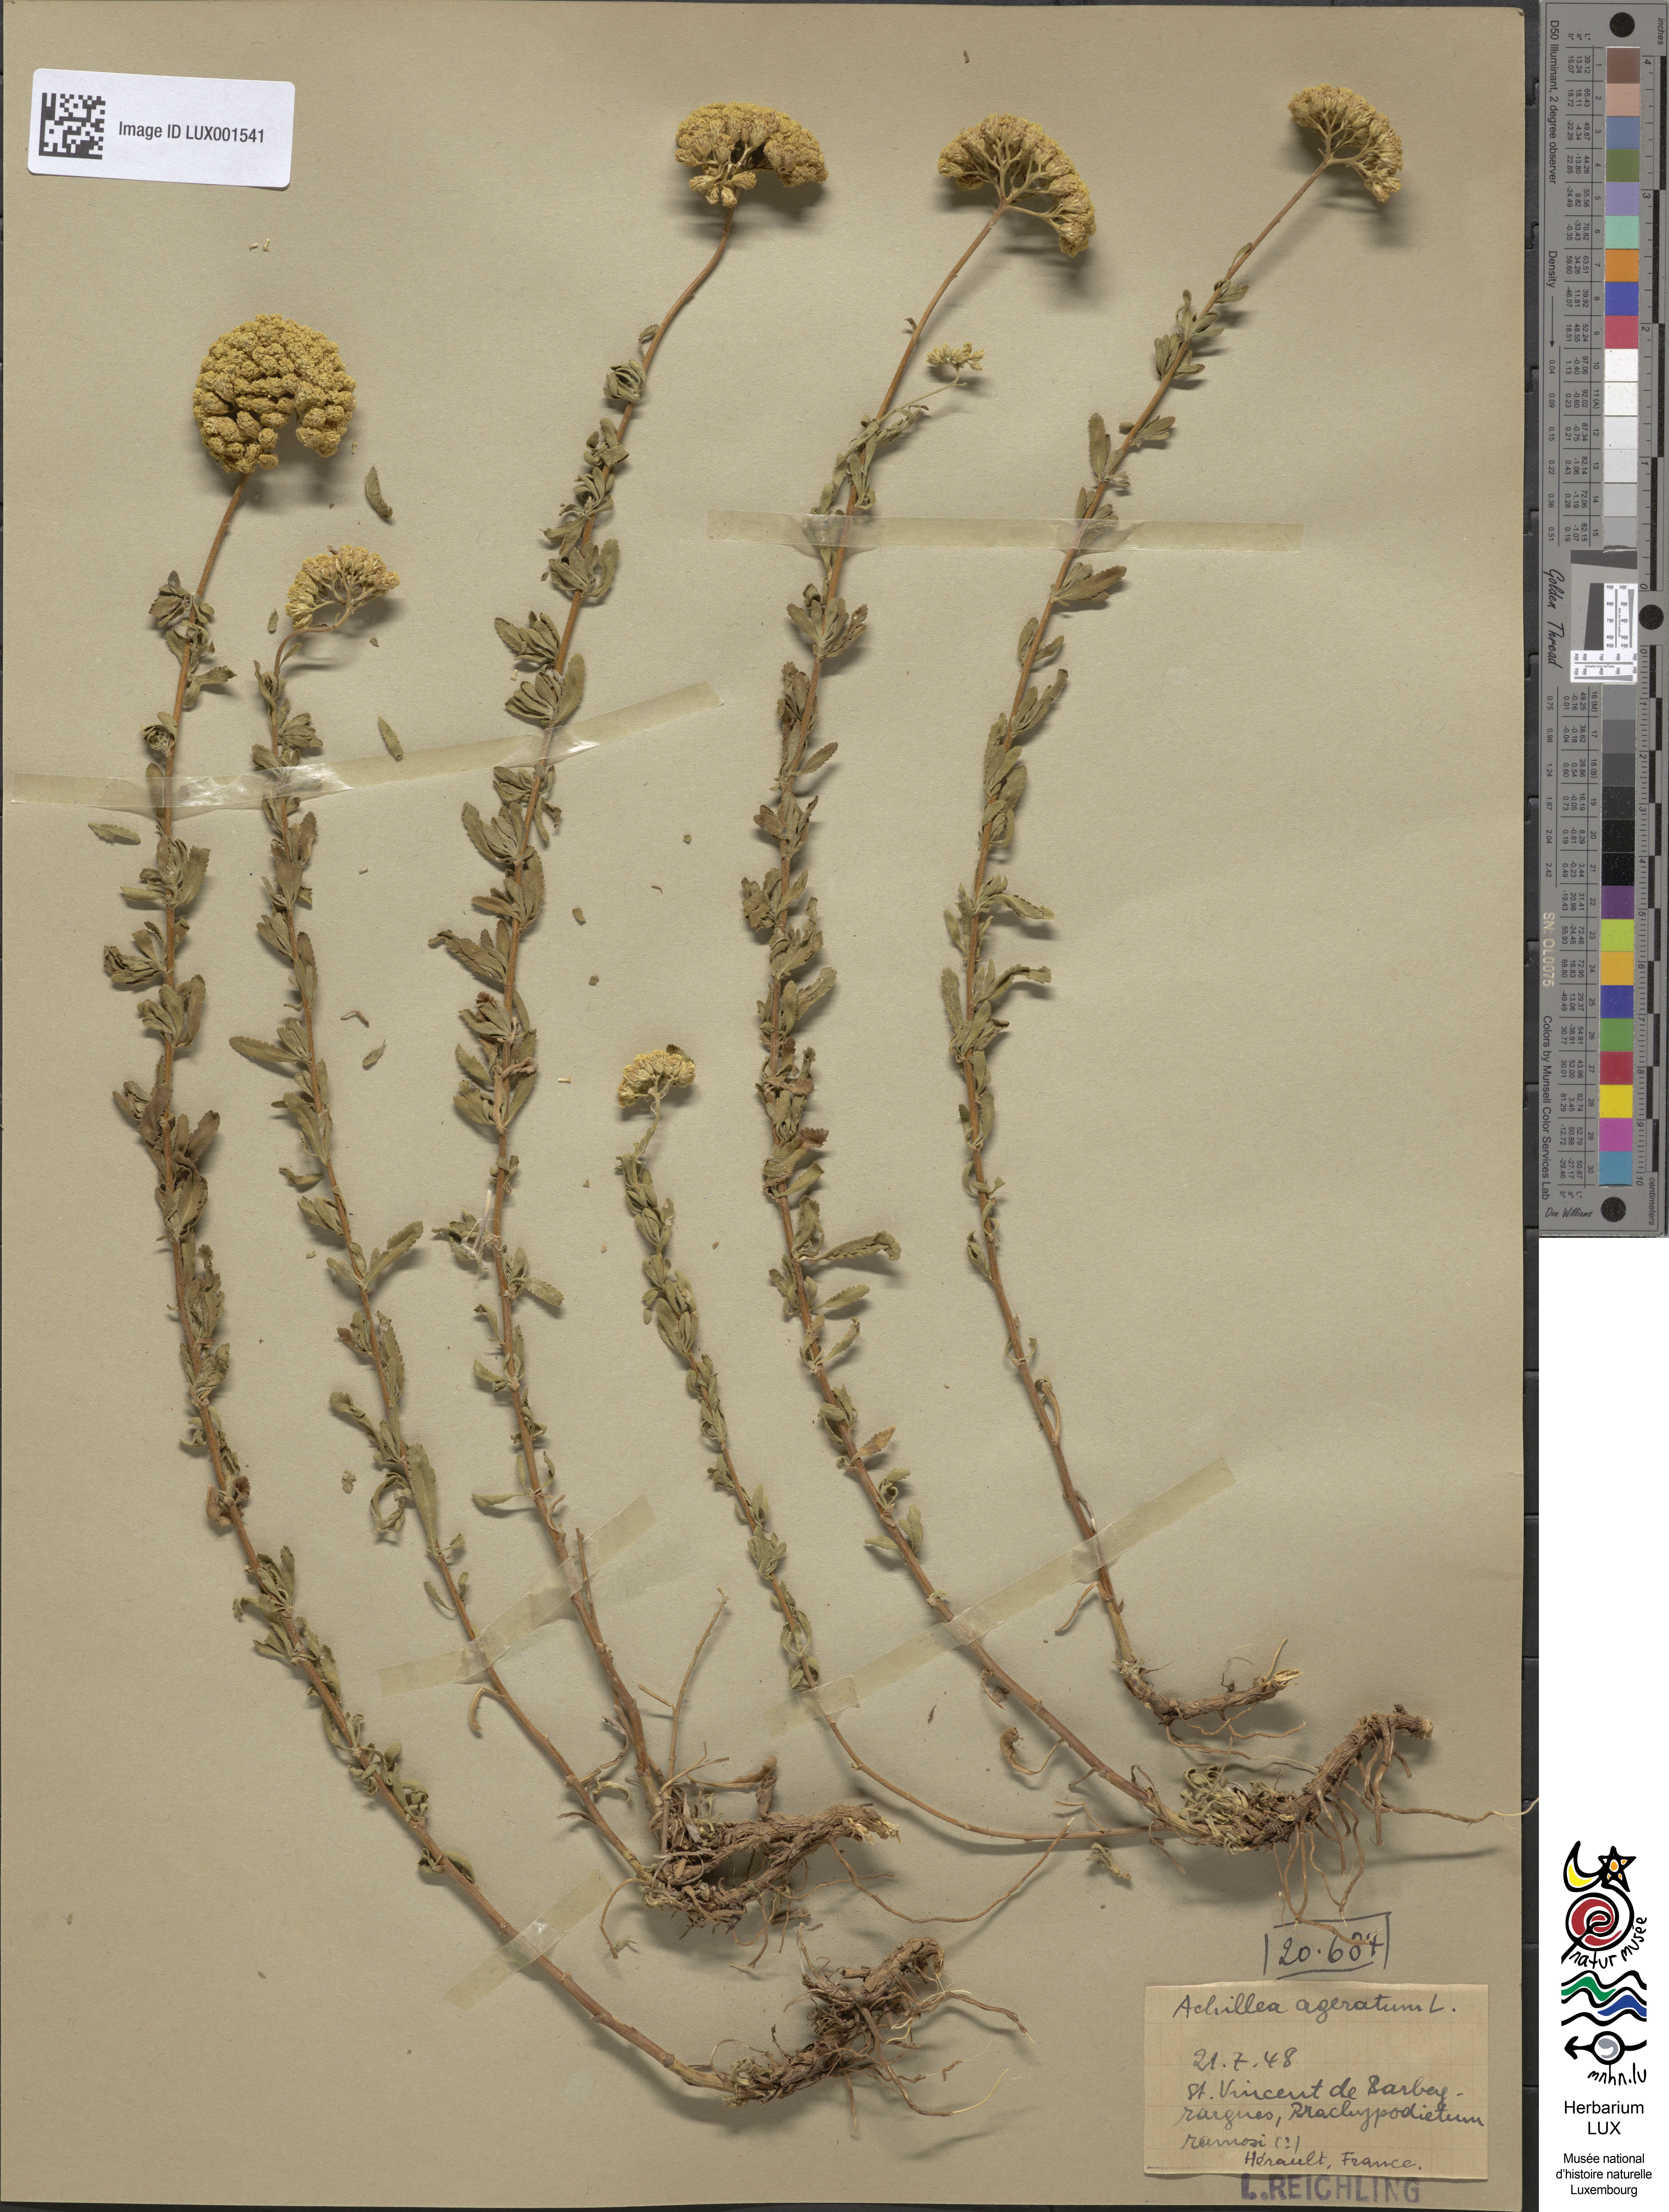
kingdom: Plantae
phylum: Tracheophyta
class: Magnoliopsida
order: Asterales
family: Asteraceae
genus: Achillea
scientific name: Achillea ageratum
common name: Sweet-nancy
